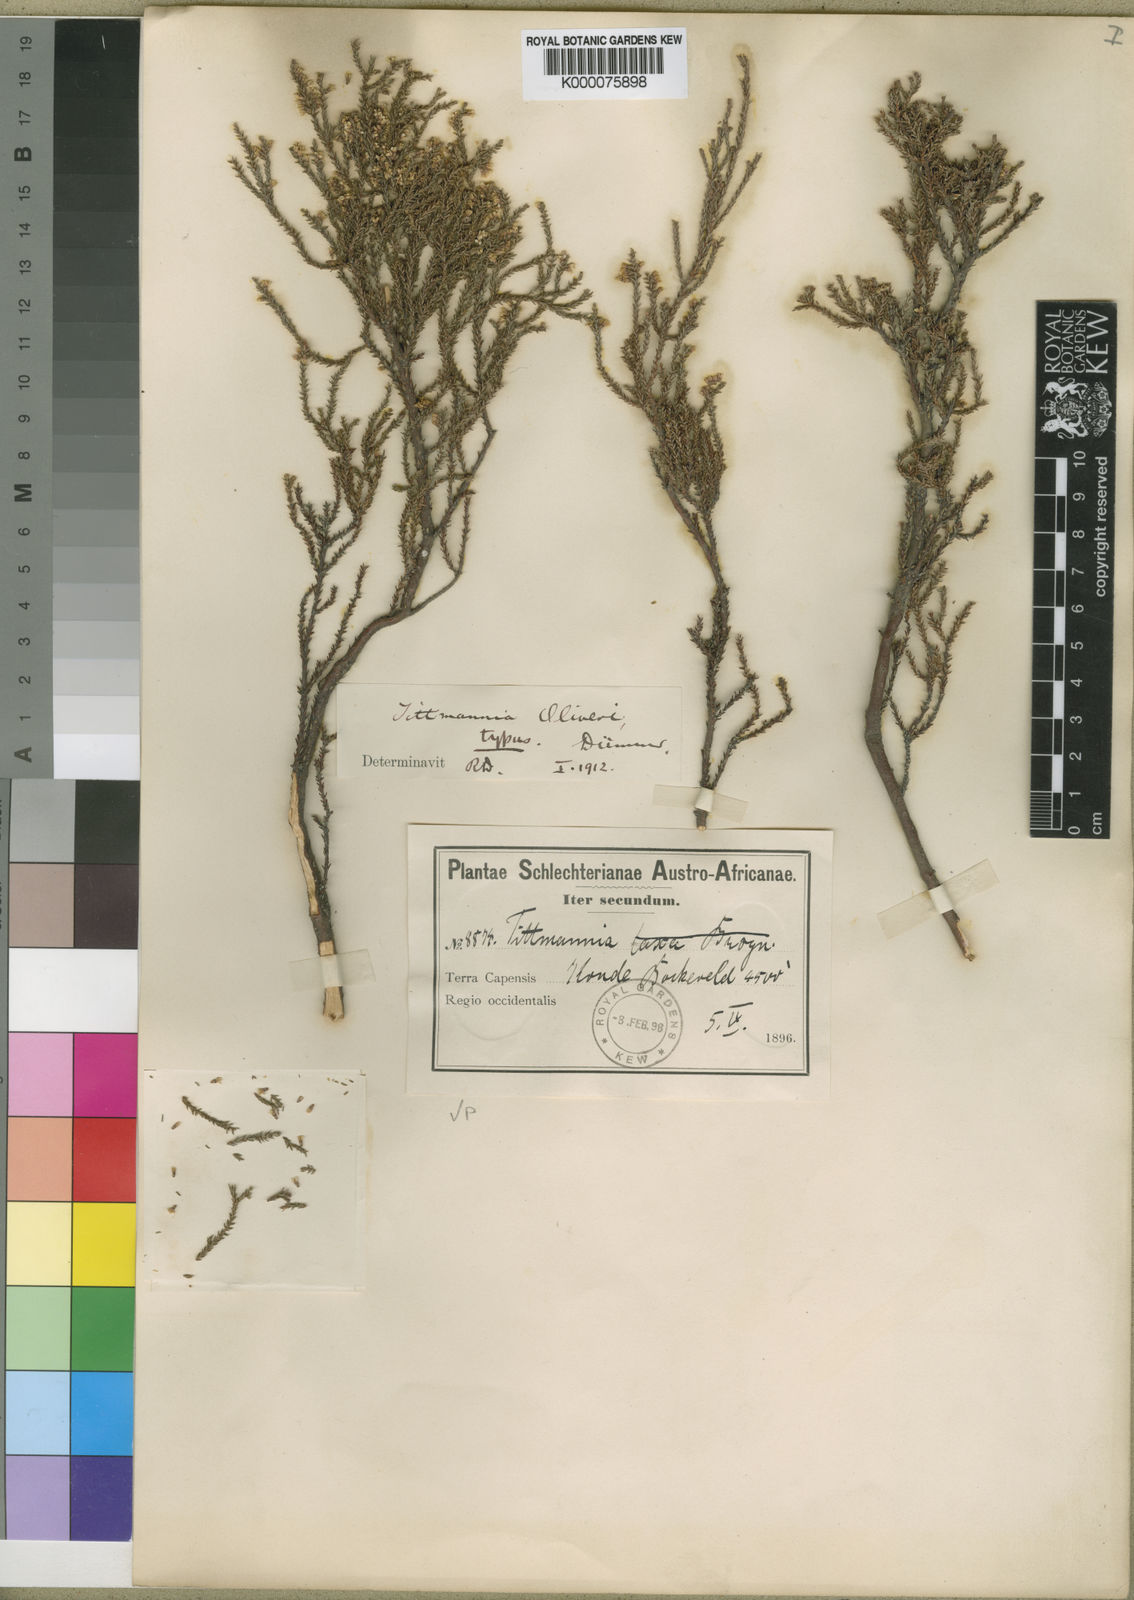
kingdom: Plantae
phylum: Tracheophyta
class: Magnoliopsida
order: Bruniales
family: Bruniaceae
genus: Audouinia
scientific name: Audouinia laxa
